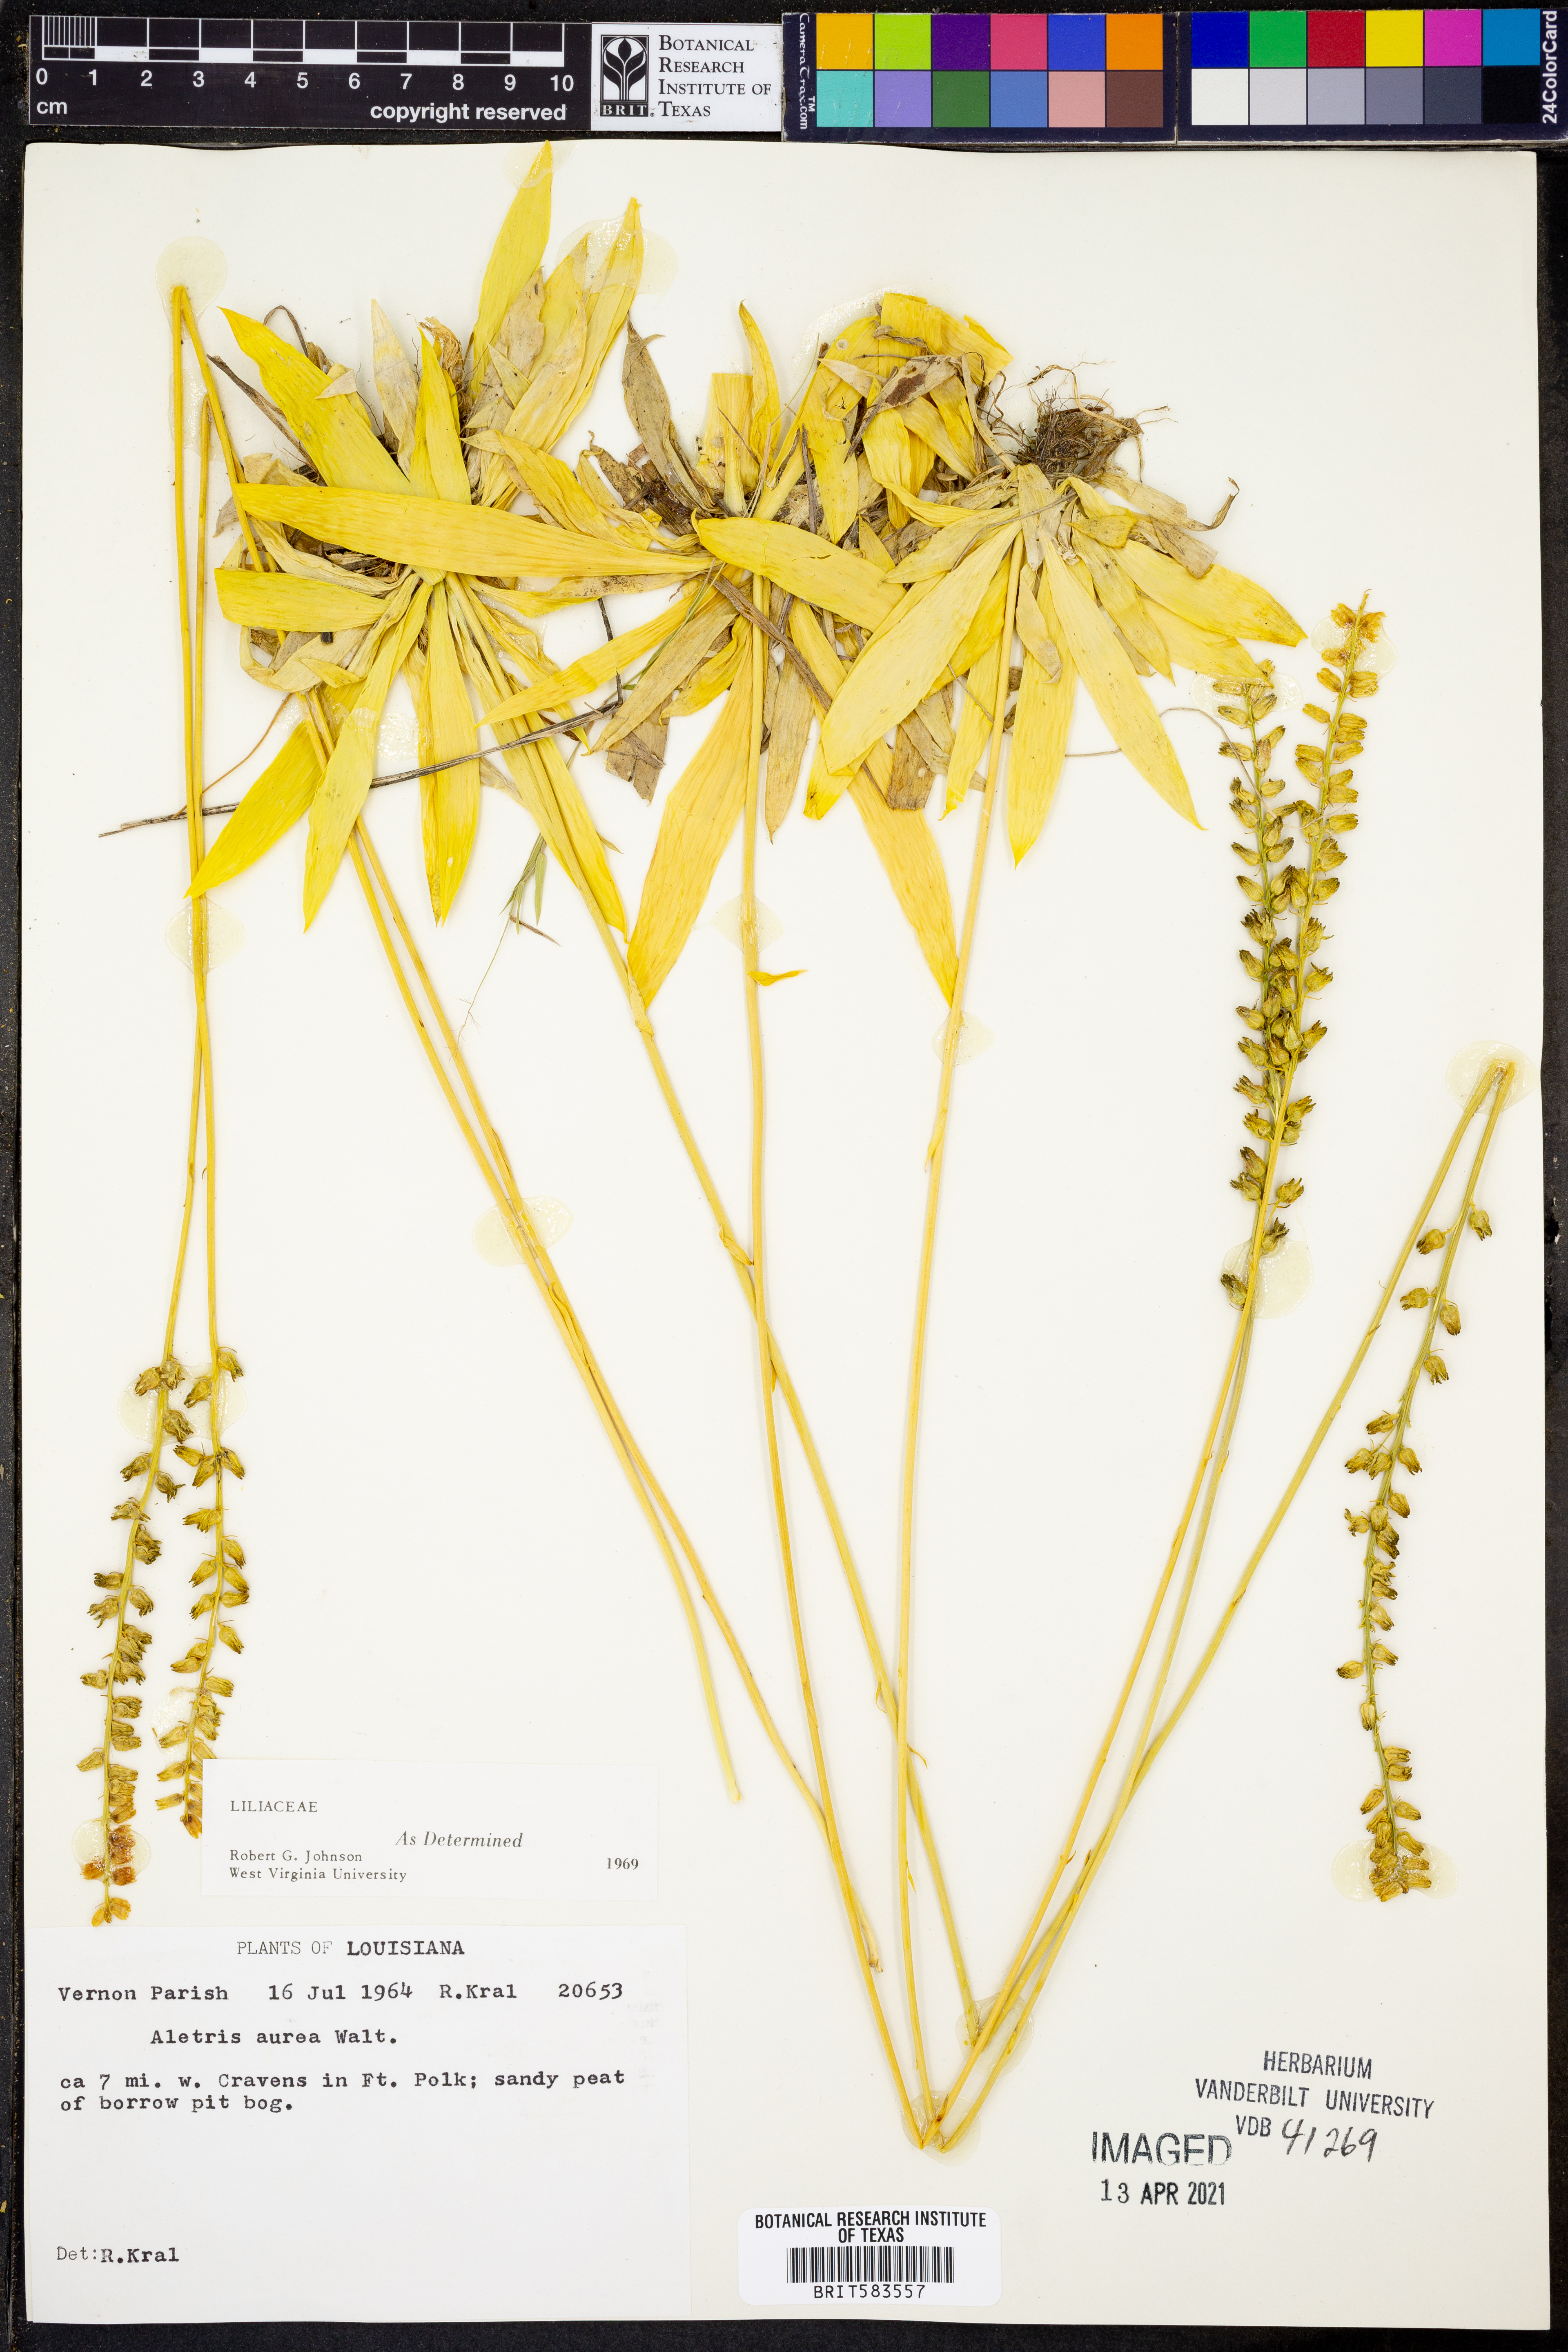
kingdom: Plantae
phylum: Tracheophyta
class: Liliopsida
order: Dioscoreales
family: Nartheciaceae
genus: Aletris
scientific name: Aletris aurea
